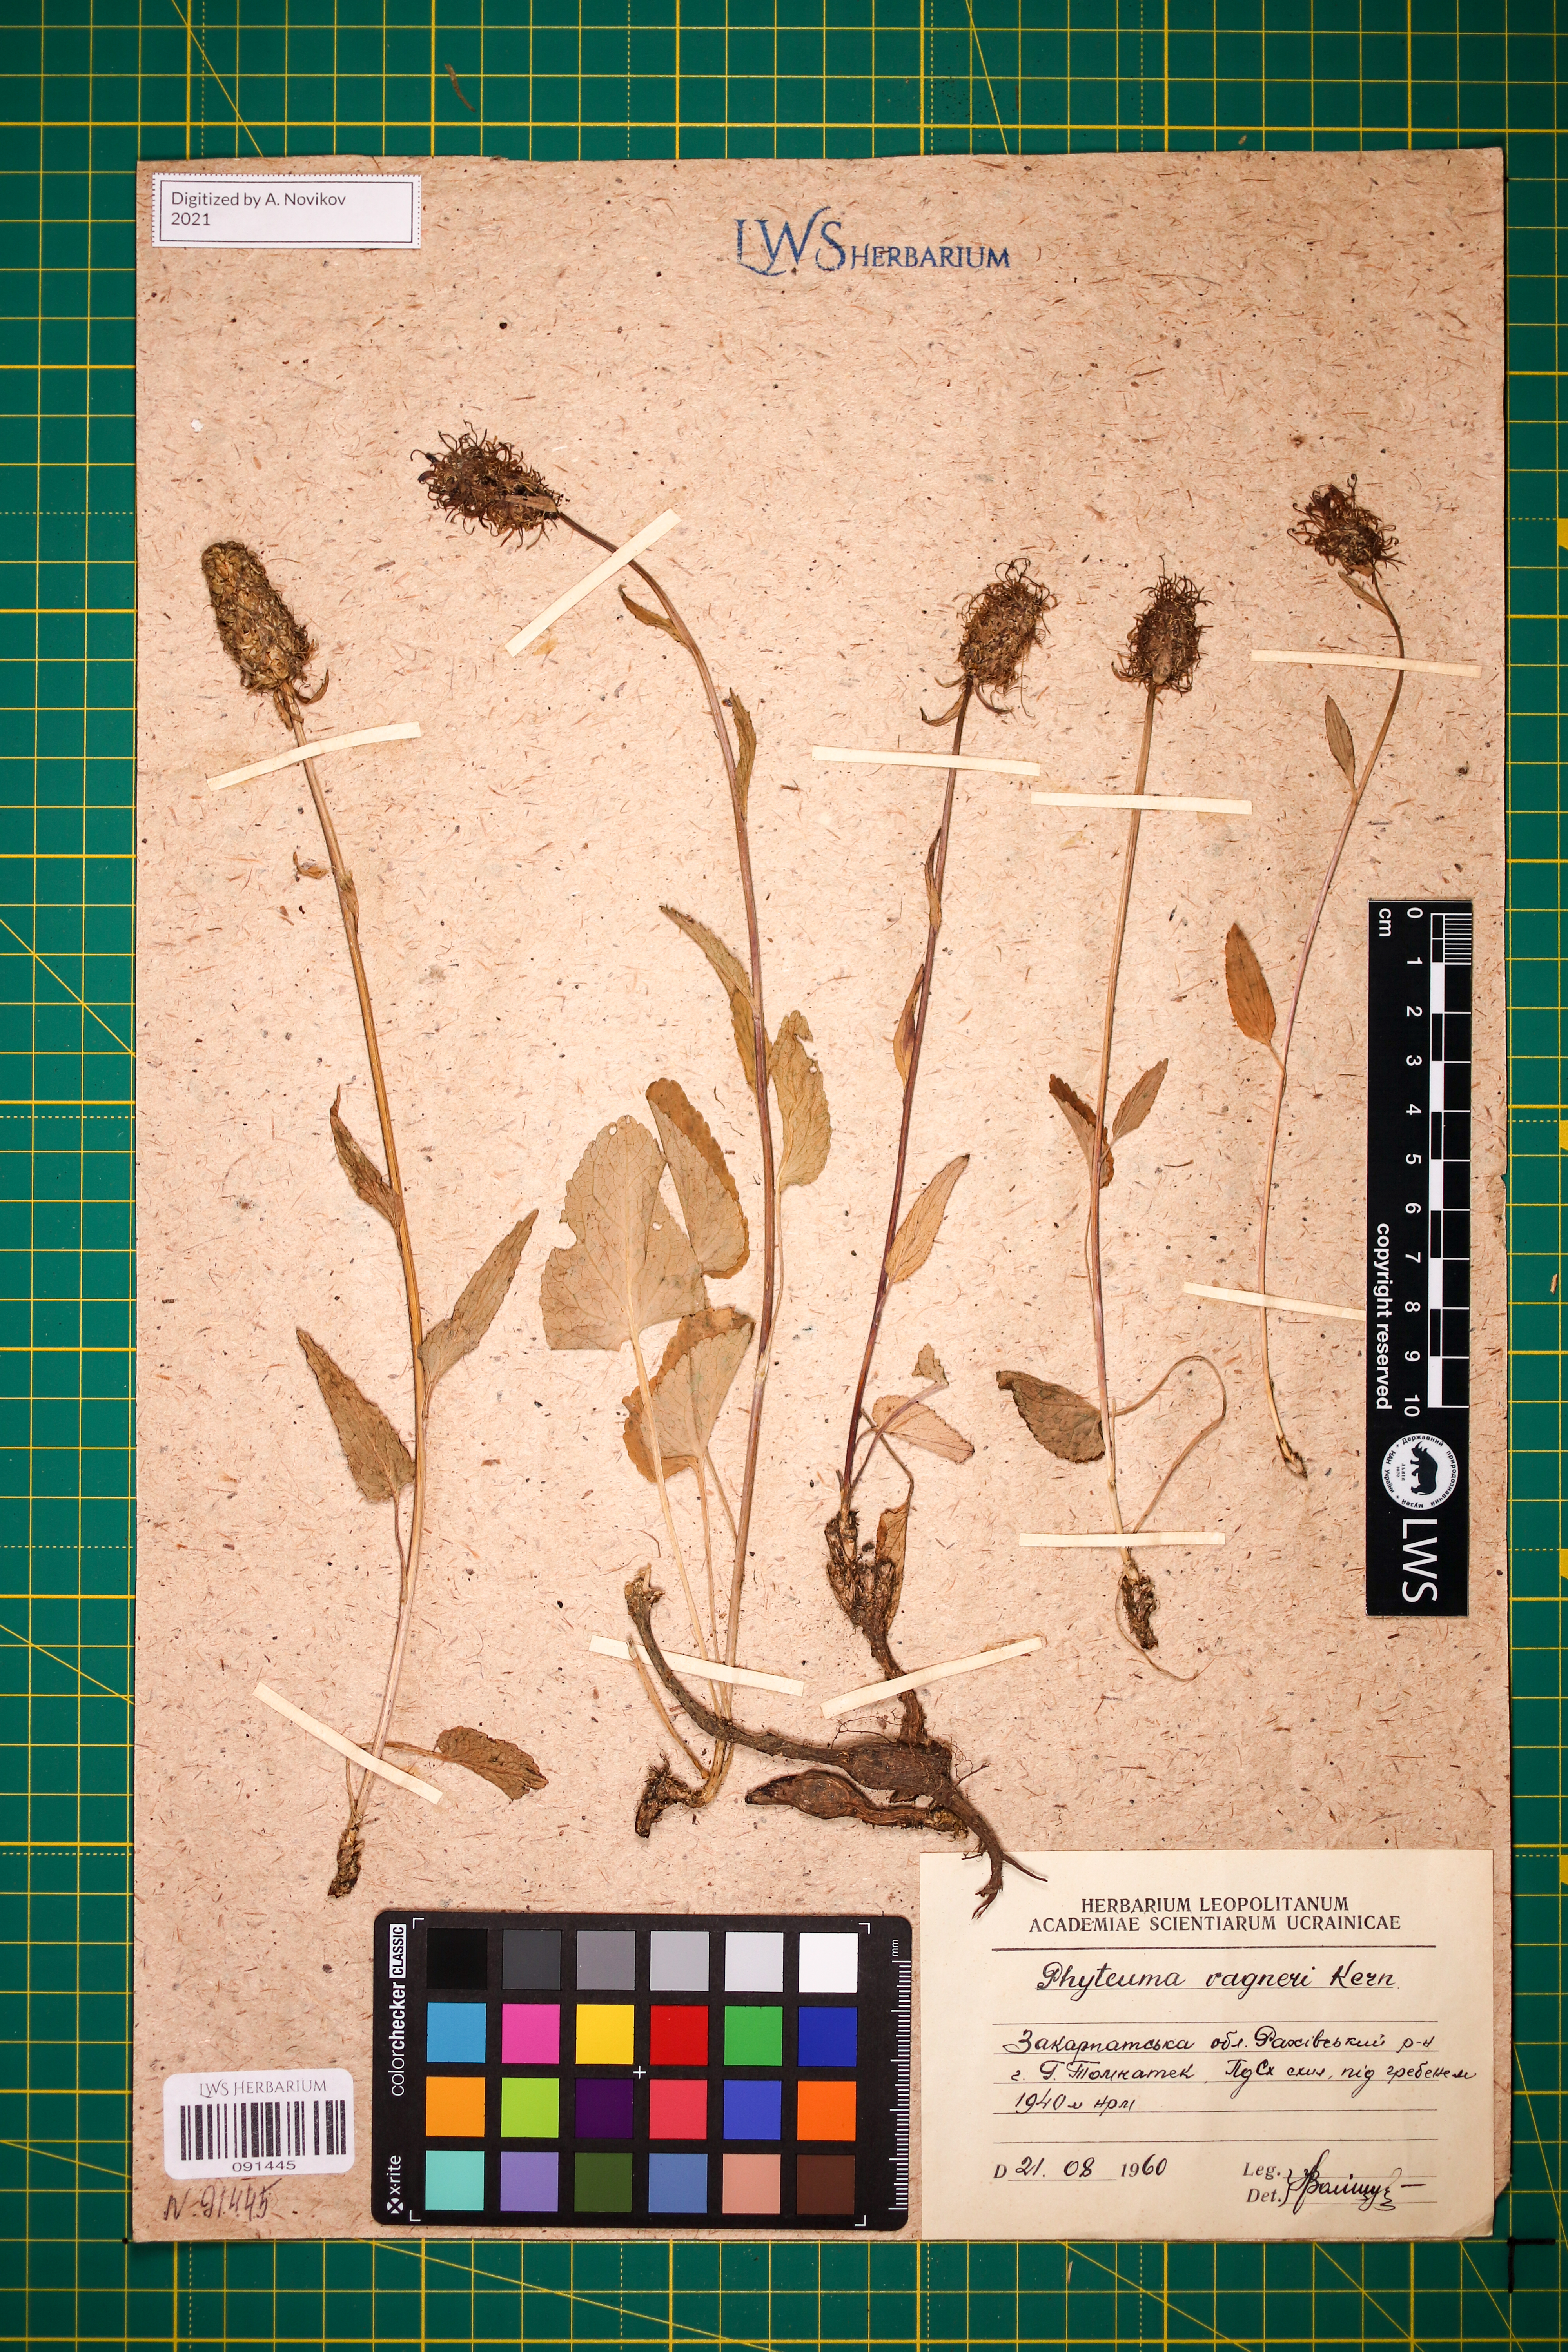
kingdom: Plantae
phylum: Tracheophyta
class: Magnoliopsida
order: Asterales
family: Campanulaceae
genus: Phyteuma
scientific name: Phyteuma vagneri
